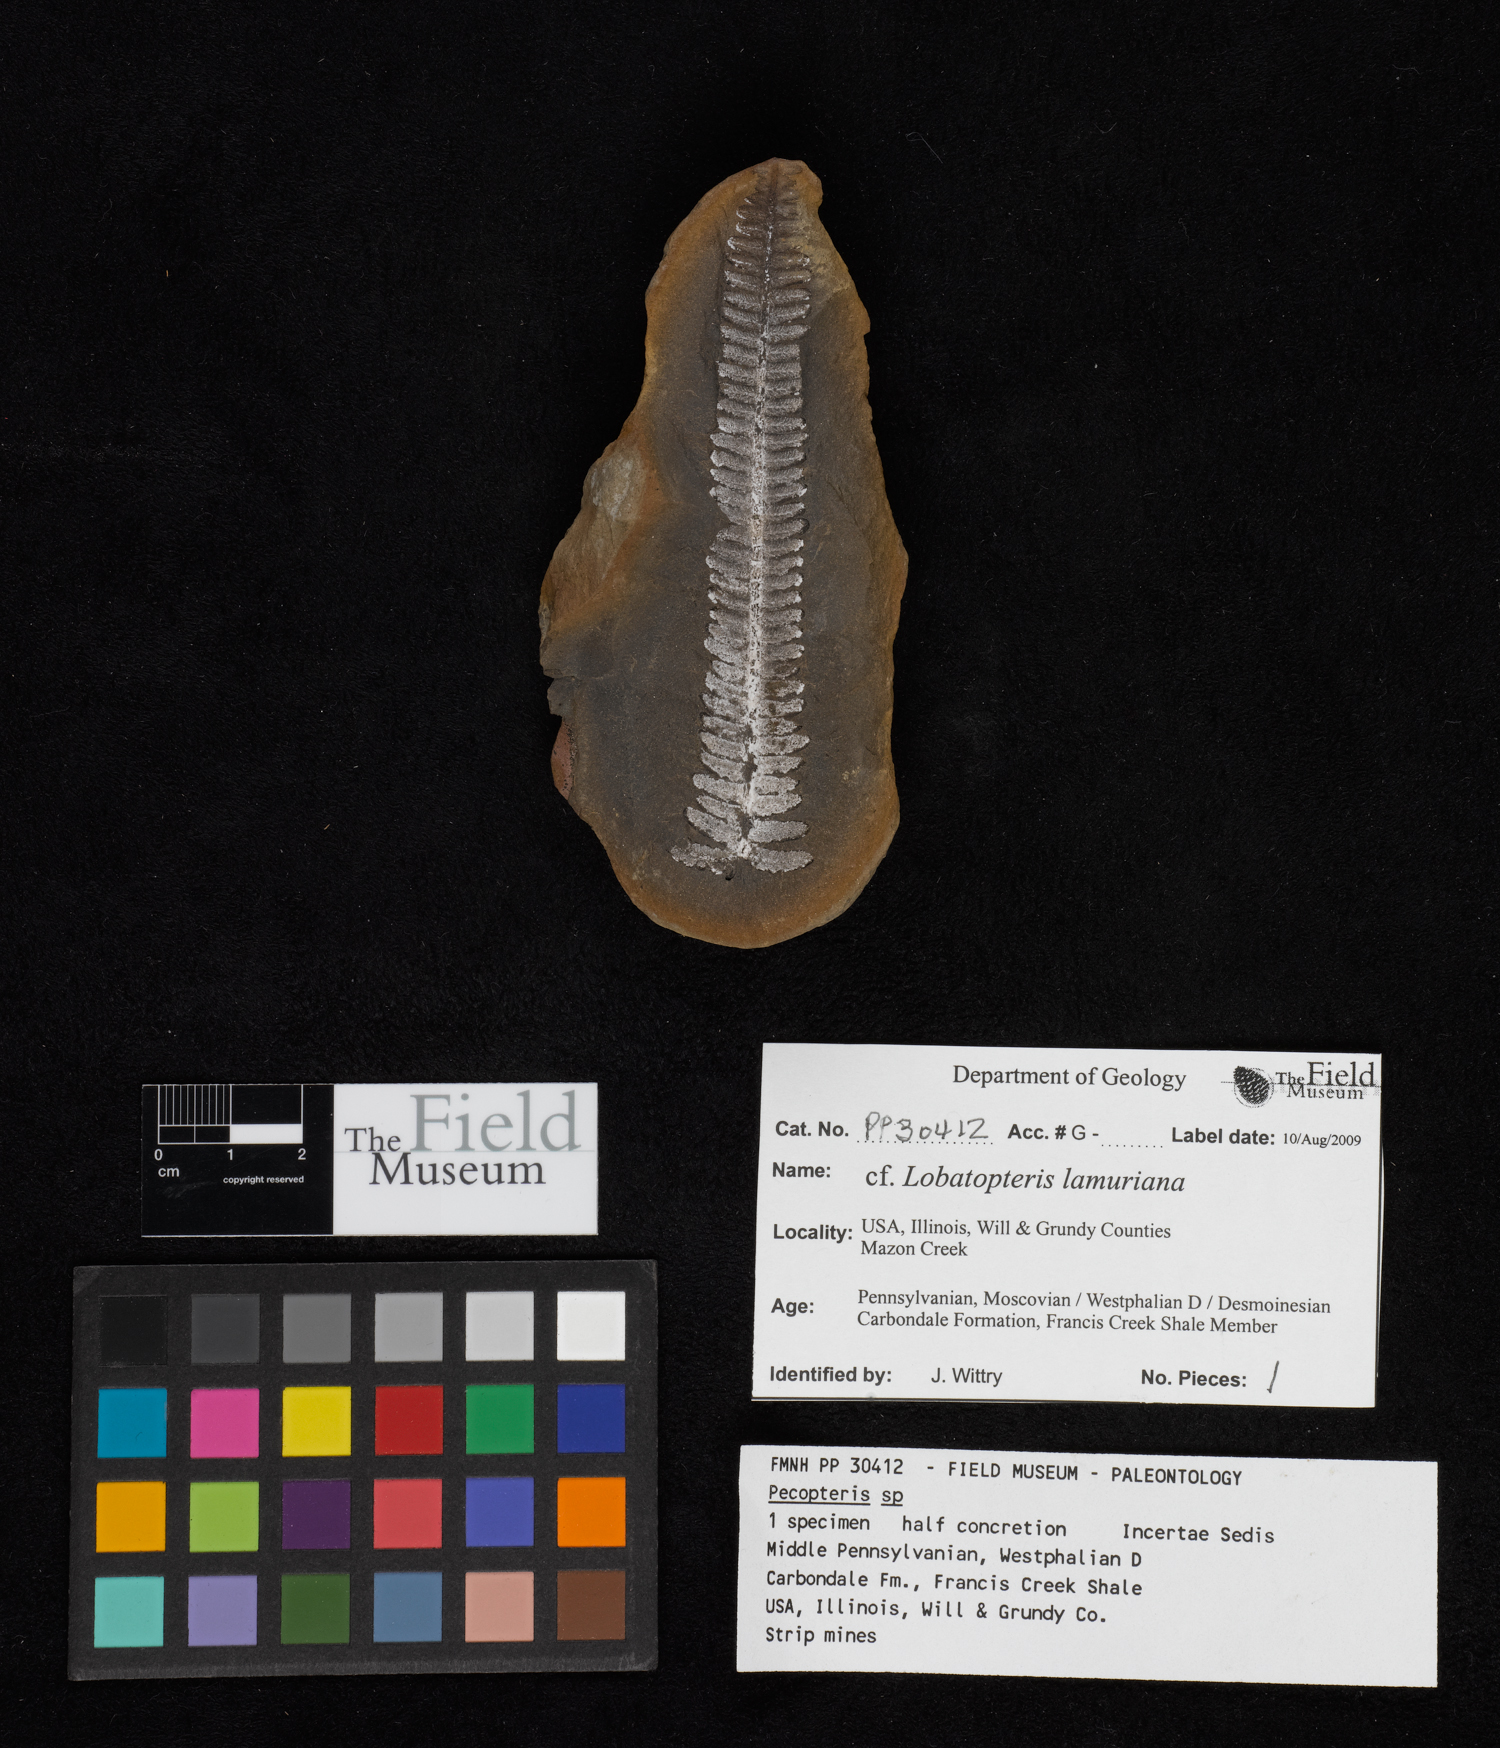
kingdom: Plantae
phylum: Tracheophyta
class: Polypodiopsida
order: Marattiales
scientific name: Marattiales
